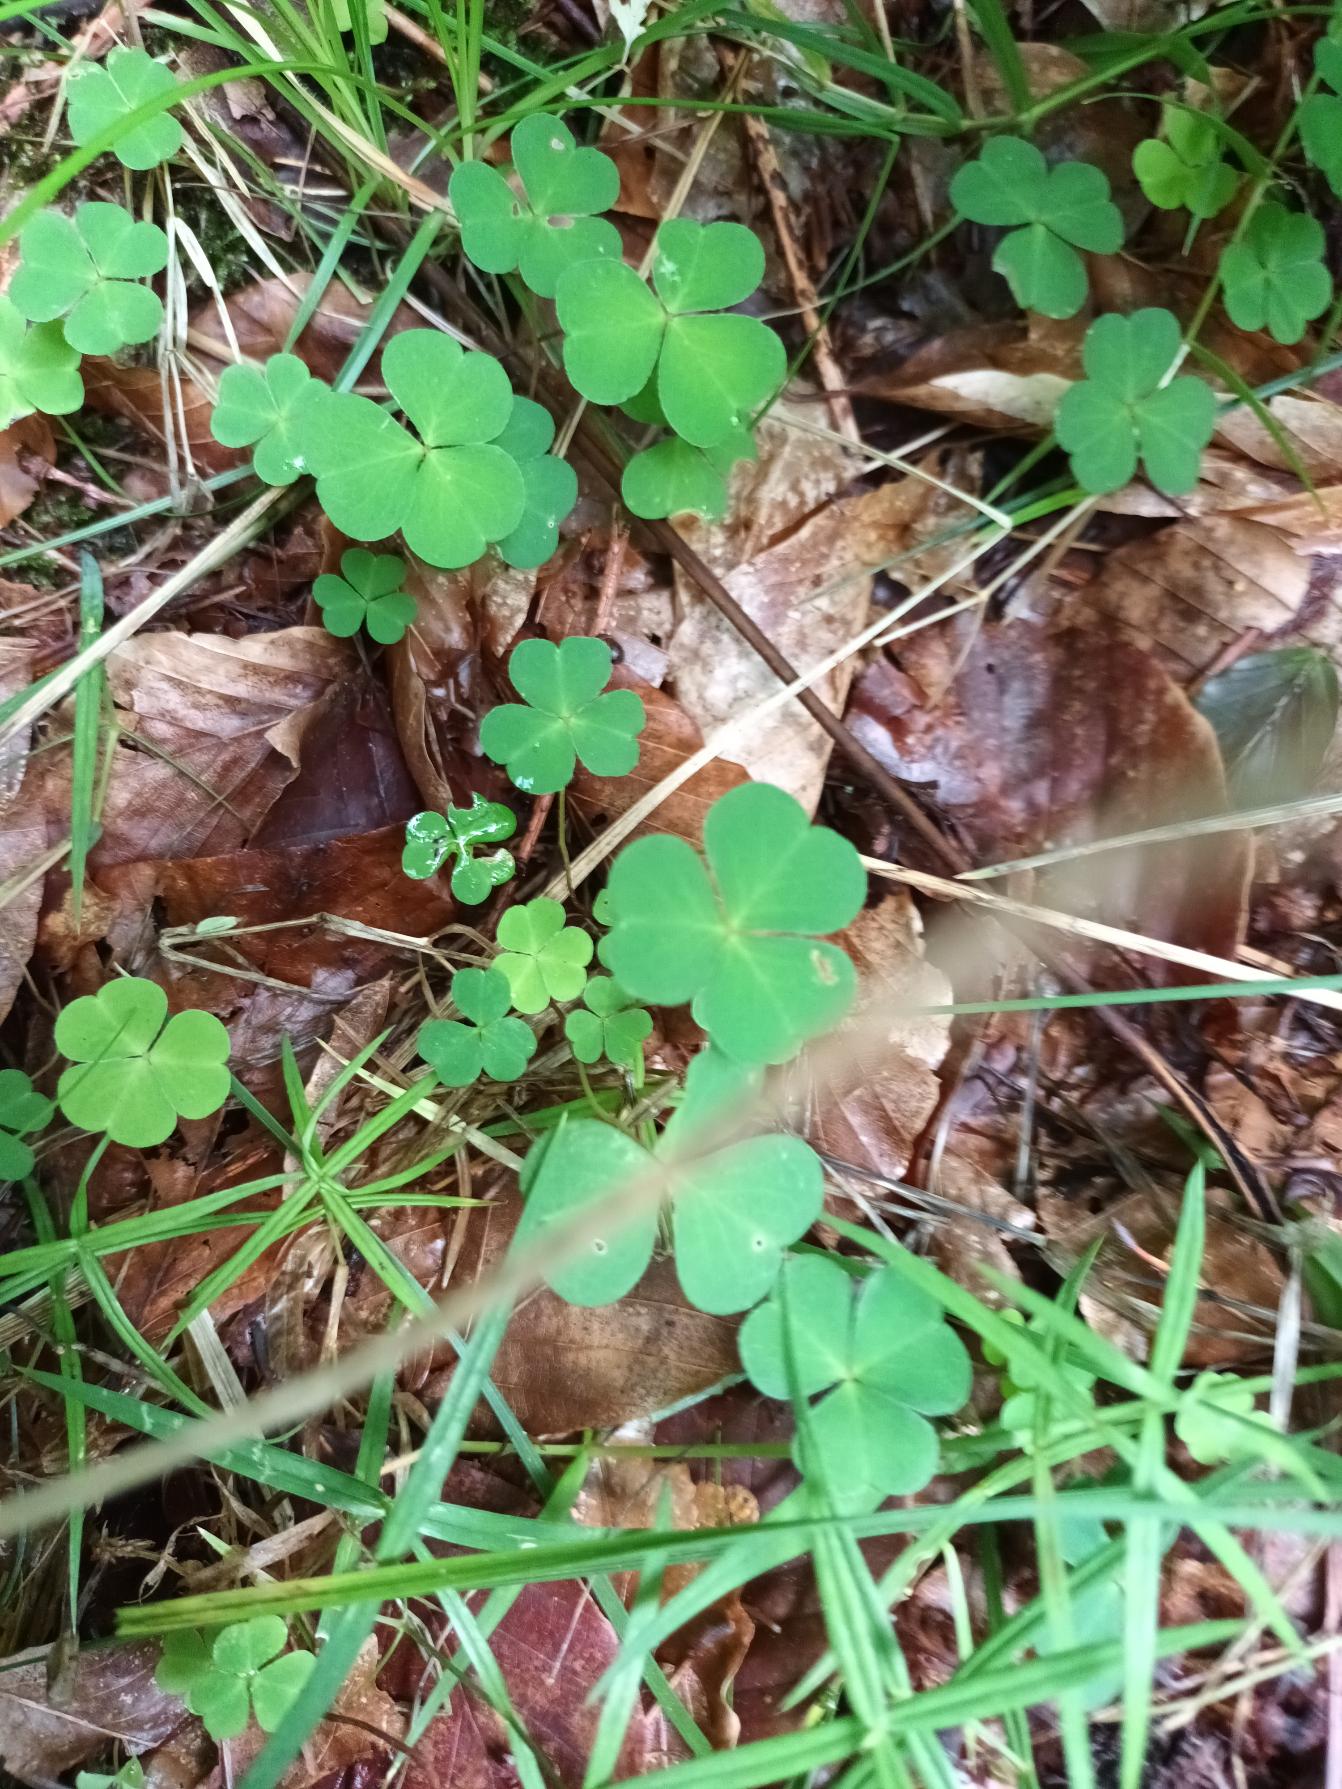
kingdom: Plantae
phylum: Tracheophyta
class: Magnoliopsida
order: Oxalidales
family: Oxalidaceae
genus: Oxalis
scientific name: Oxalis acetosella
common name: Skovsyre
